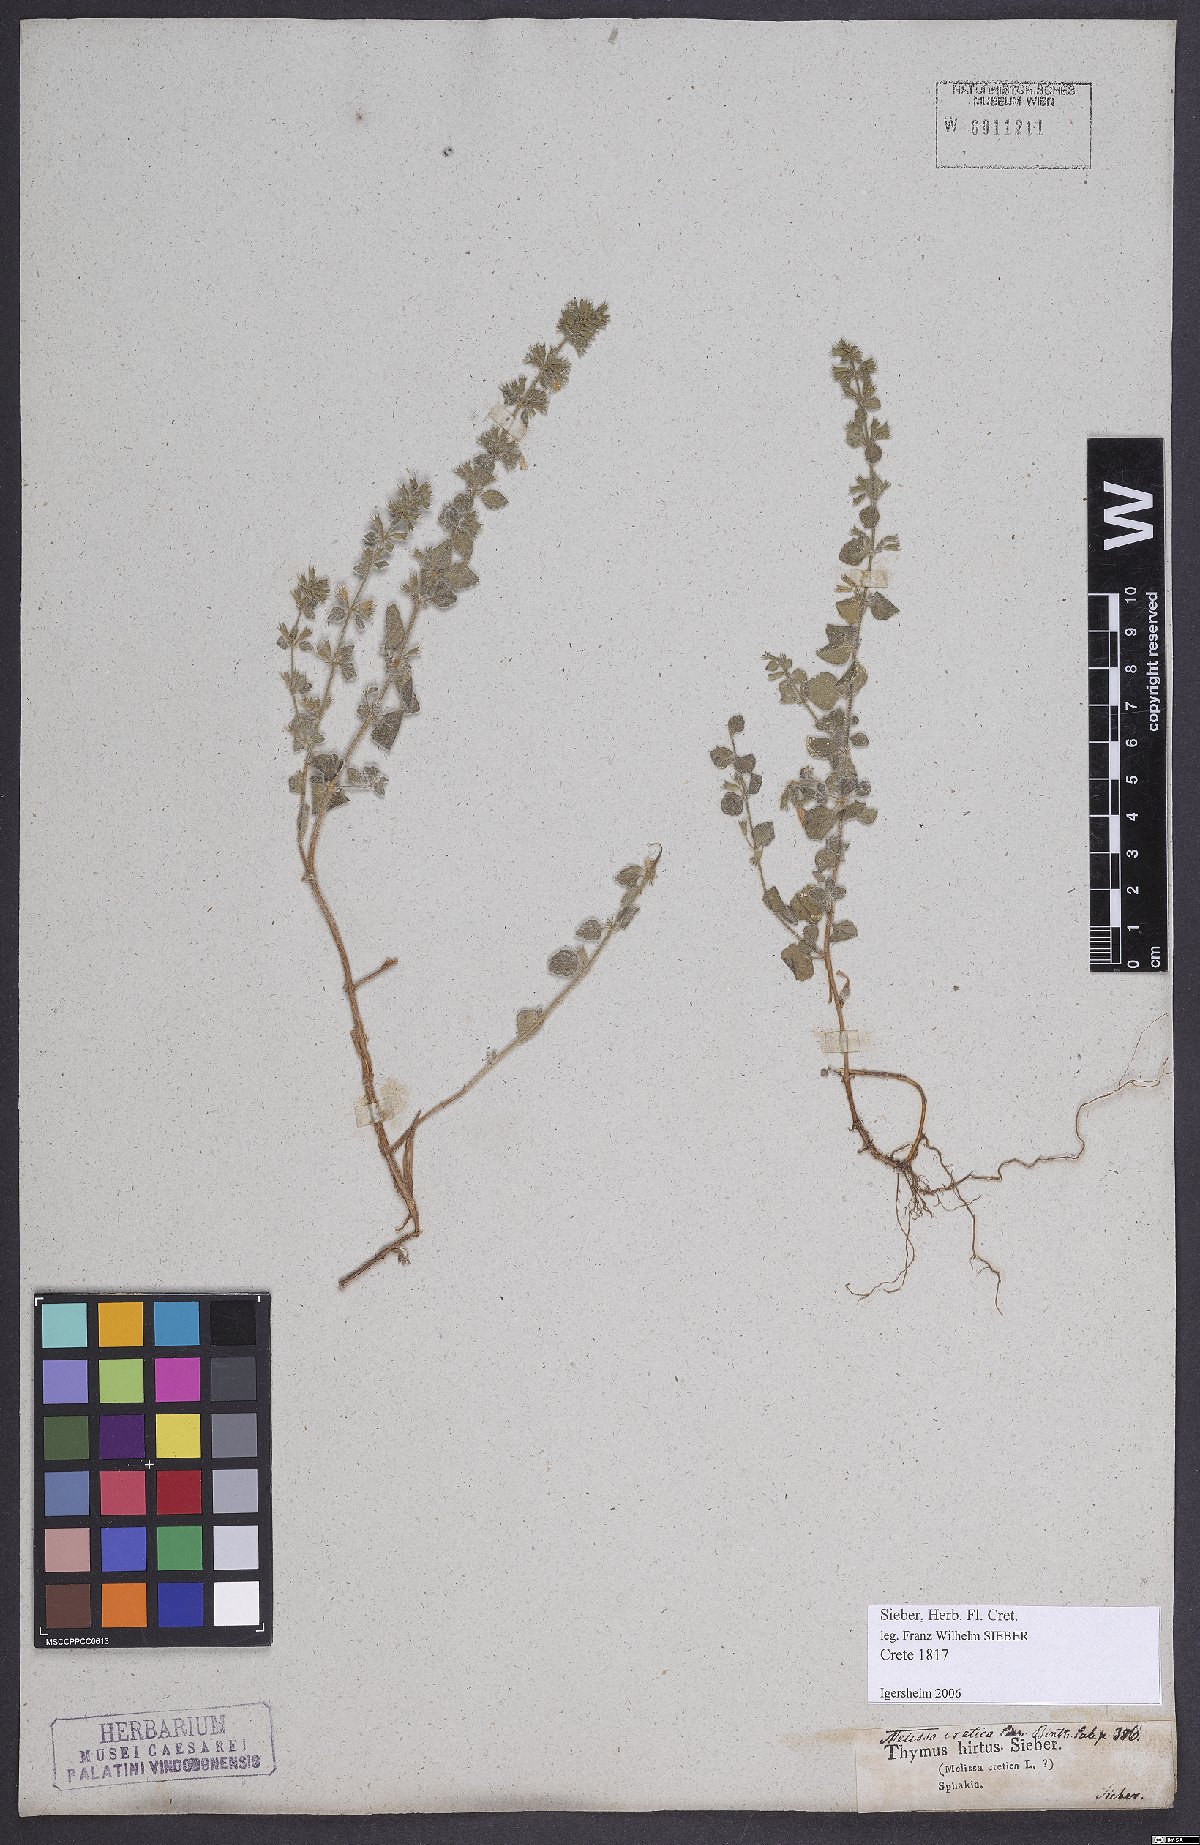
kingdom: Plantae
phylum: Tracheophyta
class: Magnoliopsida
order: Lamiales
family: Lamiaceae
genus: Clinopodium
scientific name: Clinopodium creticum
